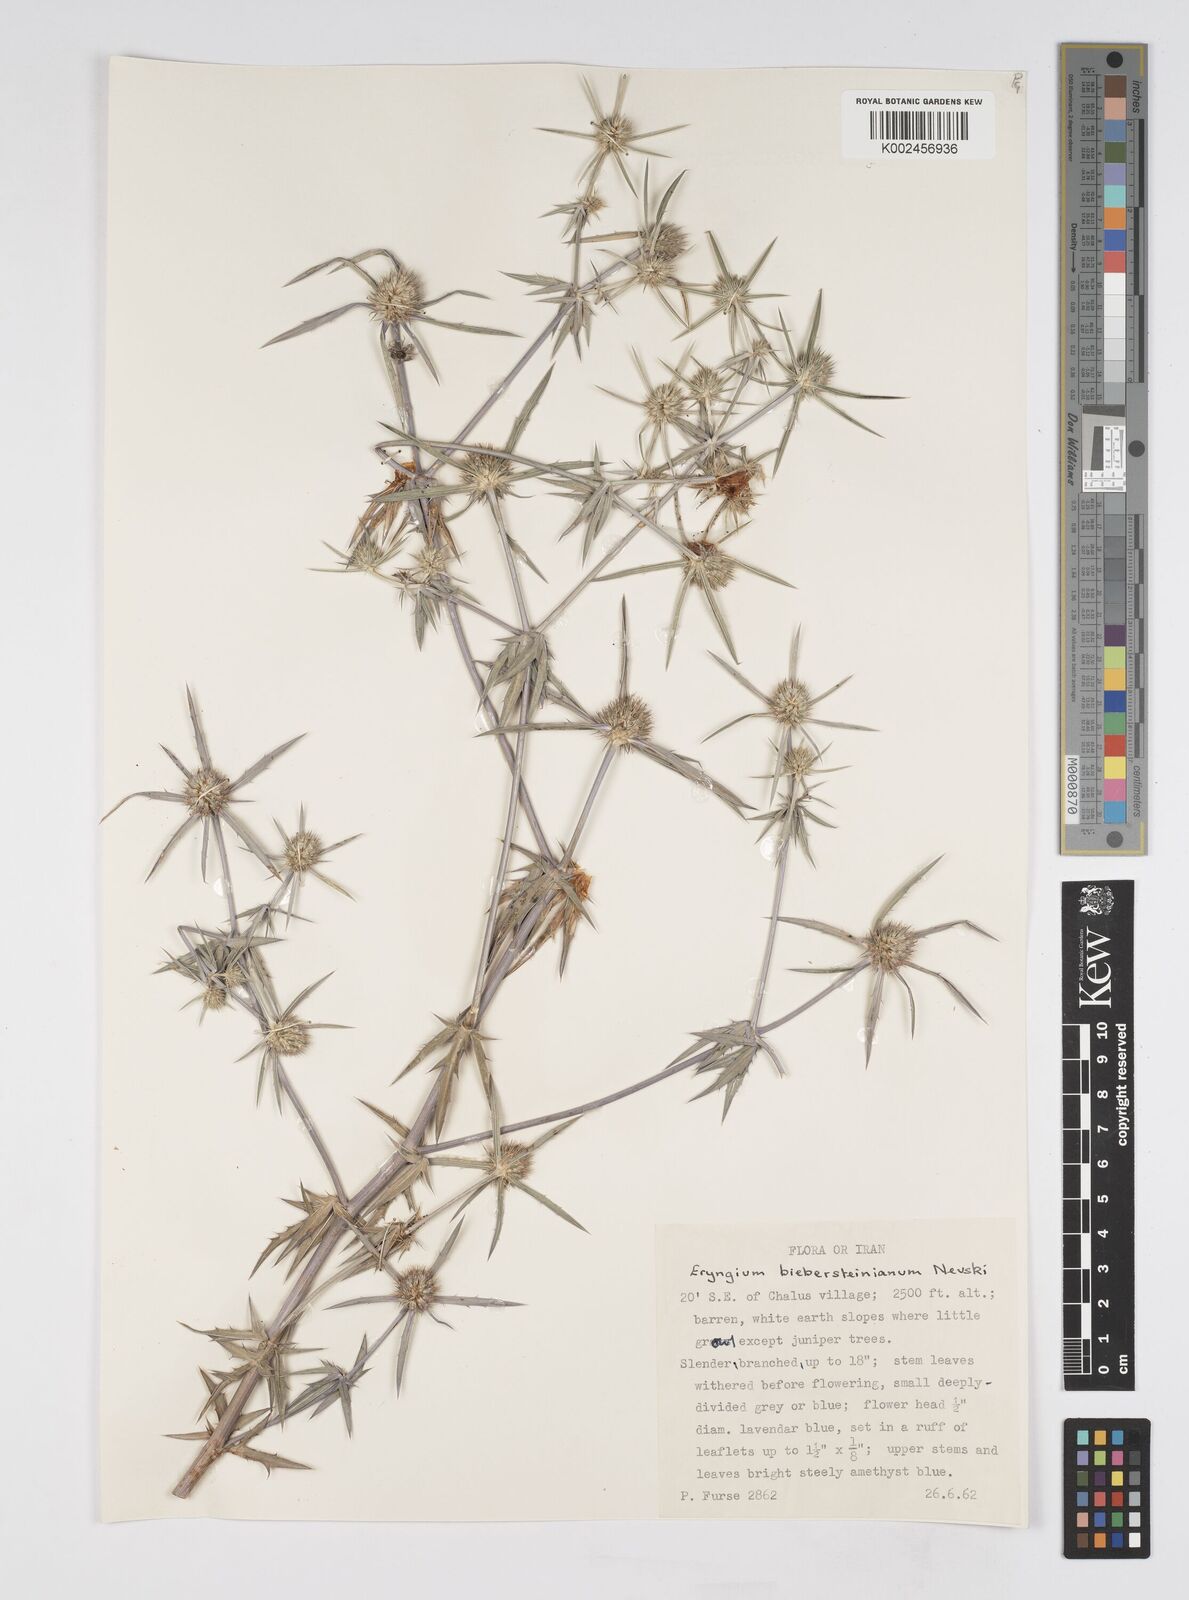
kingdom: Plantae
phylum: Tracheophyta
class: Magnoliopsida
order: Apiales
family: Apiaceae
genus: Eryngium
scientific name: Eryngium caeruleum
